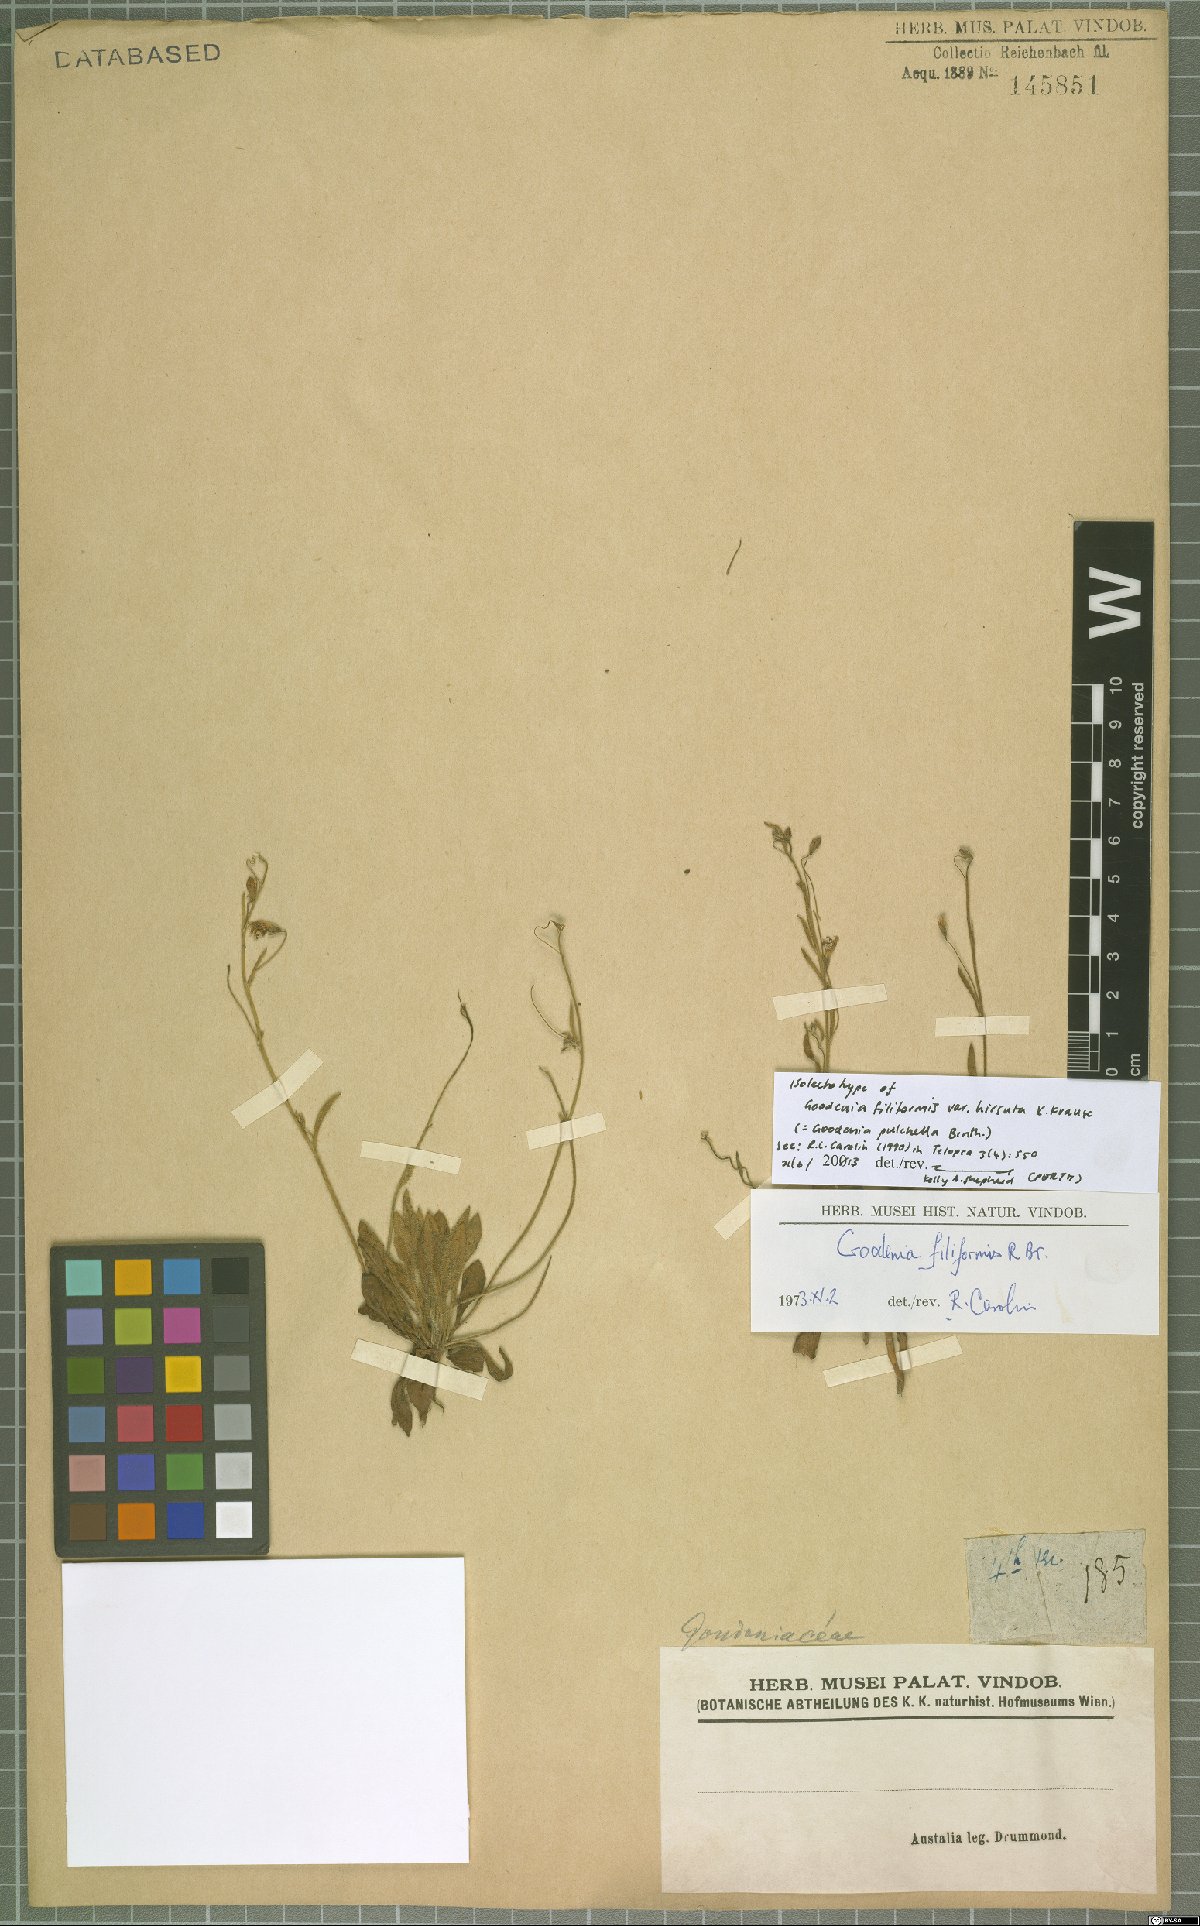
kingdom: Plantae
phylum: Tracheophyta
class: Magnoliopsida
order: Asterales
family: Goodeniaceae
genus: Goodenia
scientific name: Goodenia pulchella
